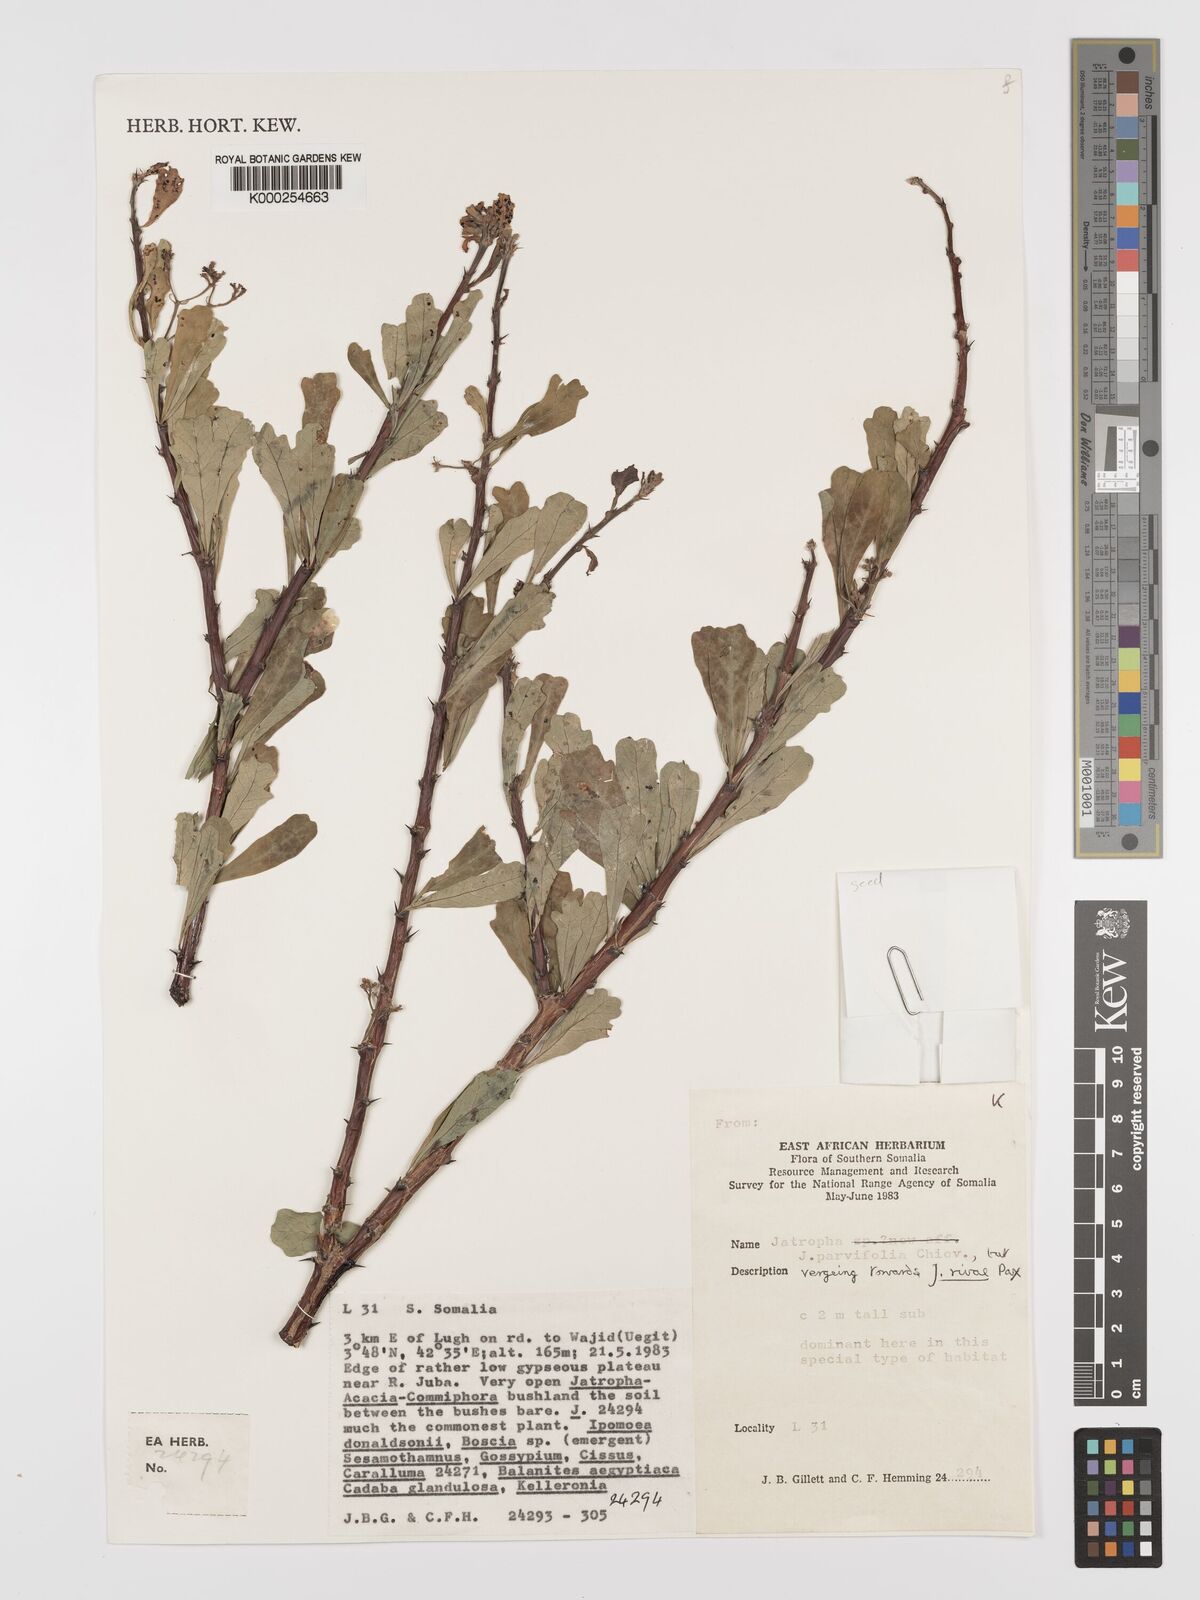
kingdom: Plantae
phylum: Tracheophyta
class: Magnoliopsida
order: Malpighiales
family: Euphorbiaceae
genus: Jatropha
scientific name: Jatropha rivae
